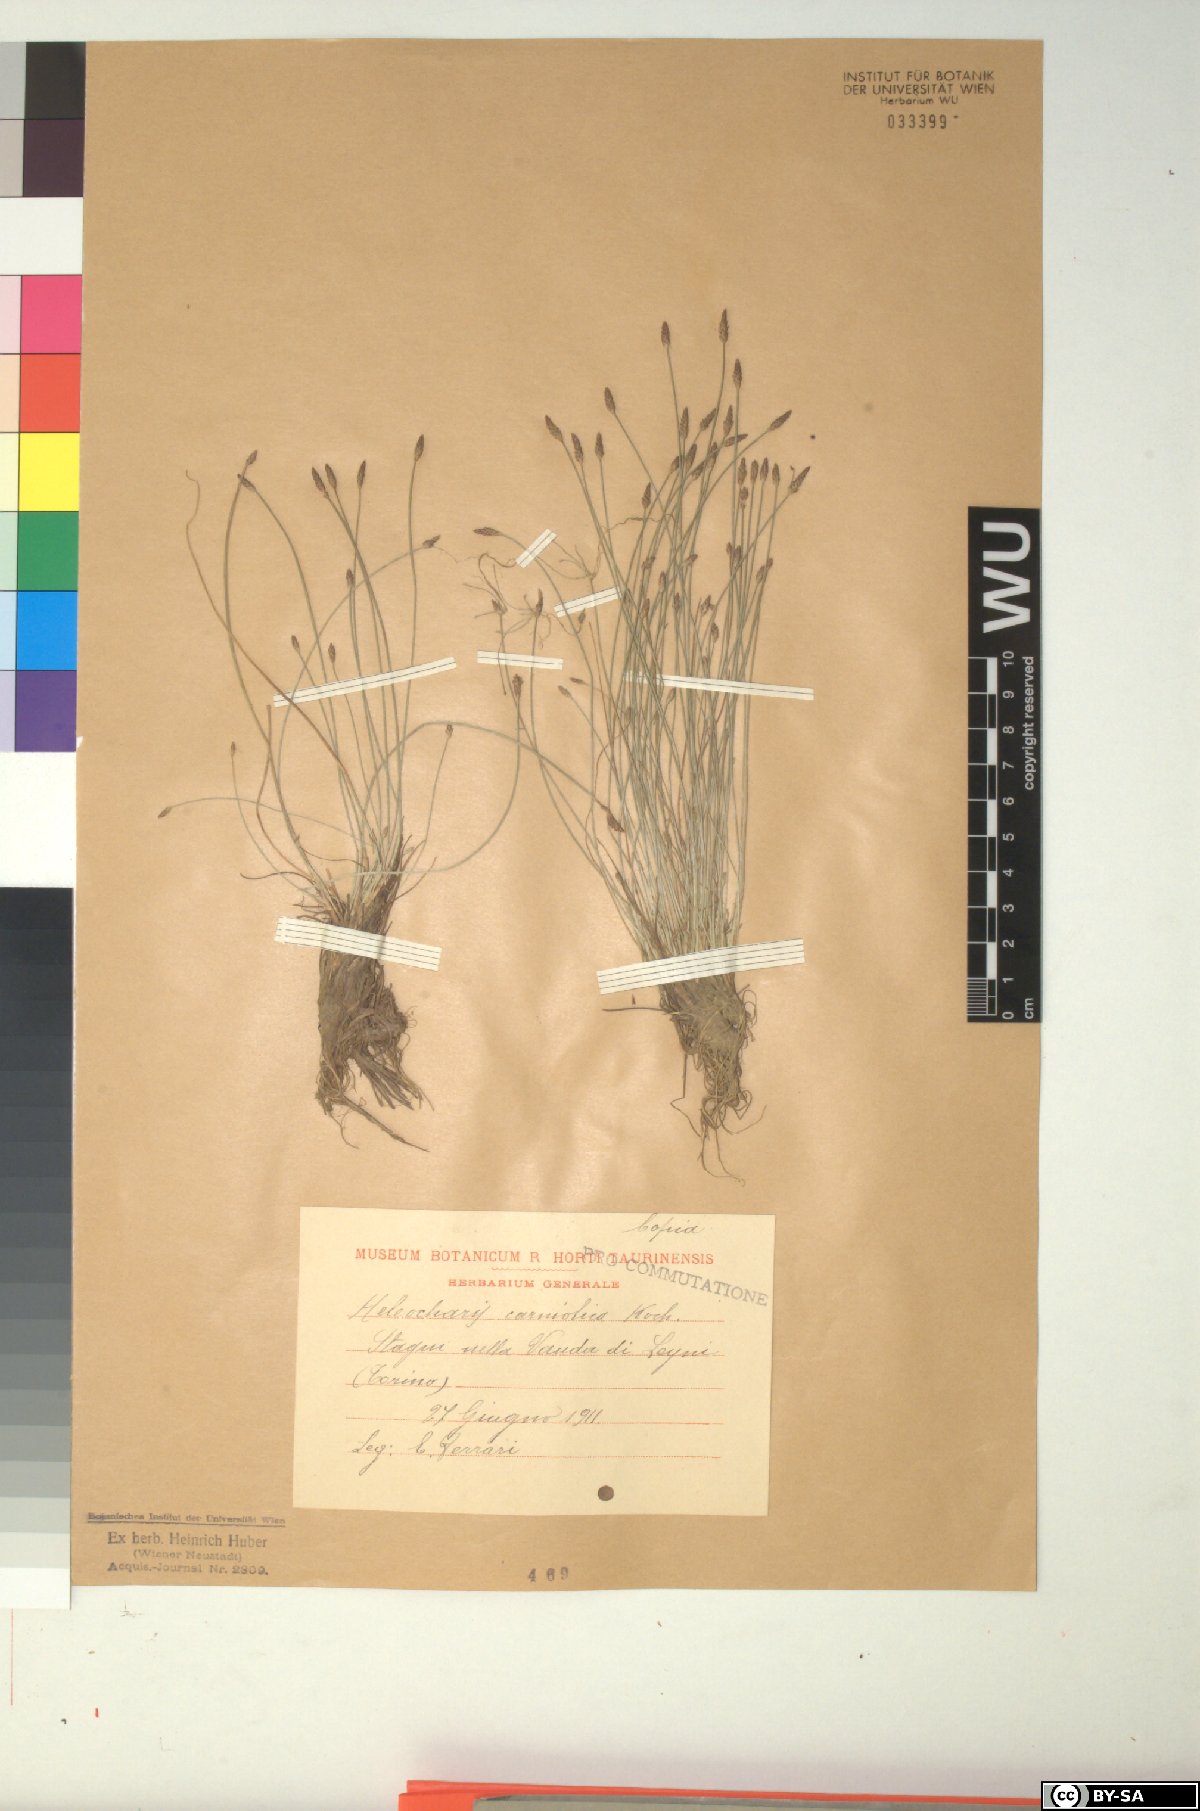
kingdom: Plantae
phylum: Tracheophyta
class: Liliopsida
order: Poales
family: Cyperaceae
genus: Eleocharis
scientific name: Eleocharis carniolica
